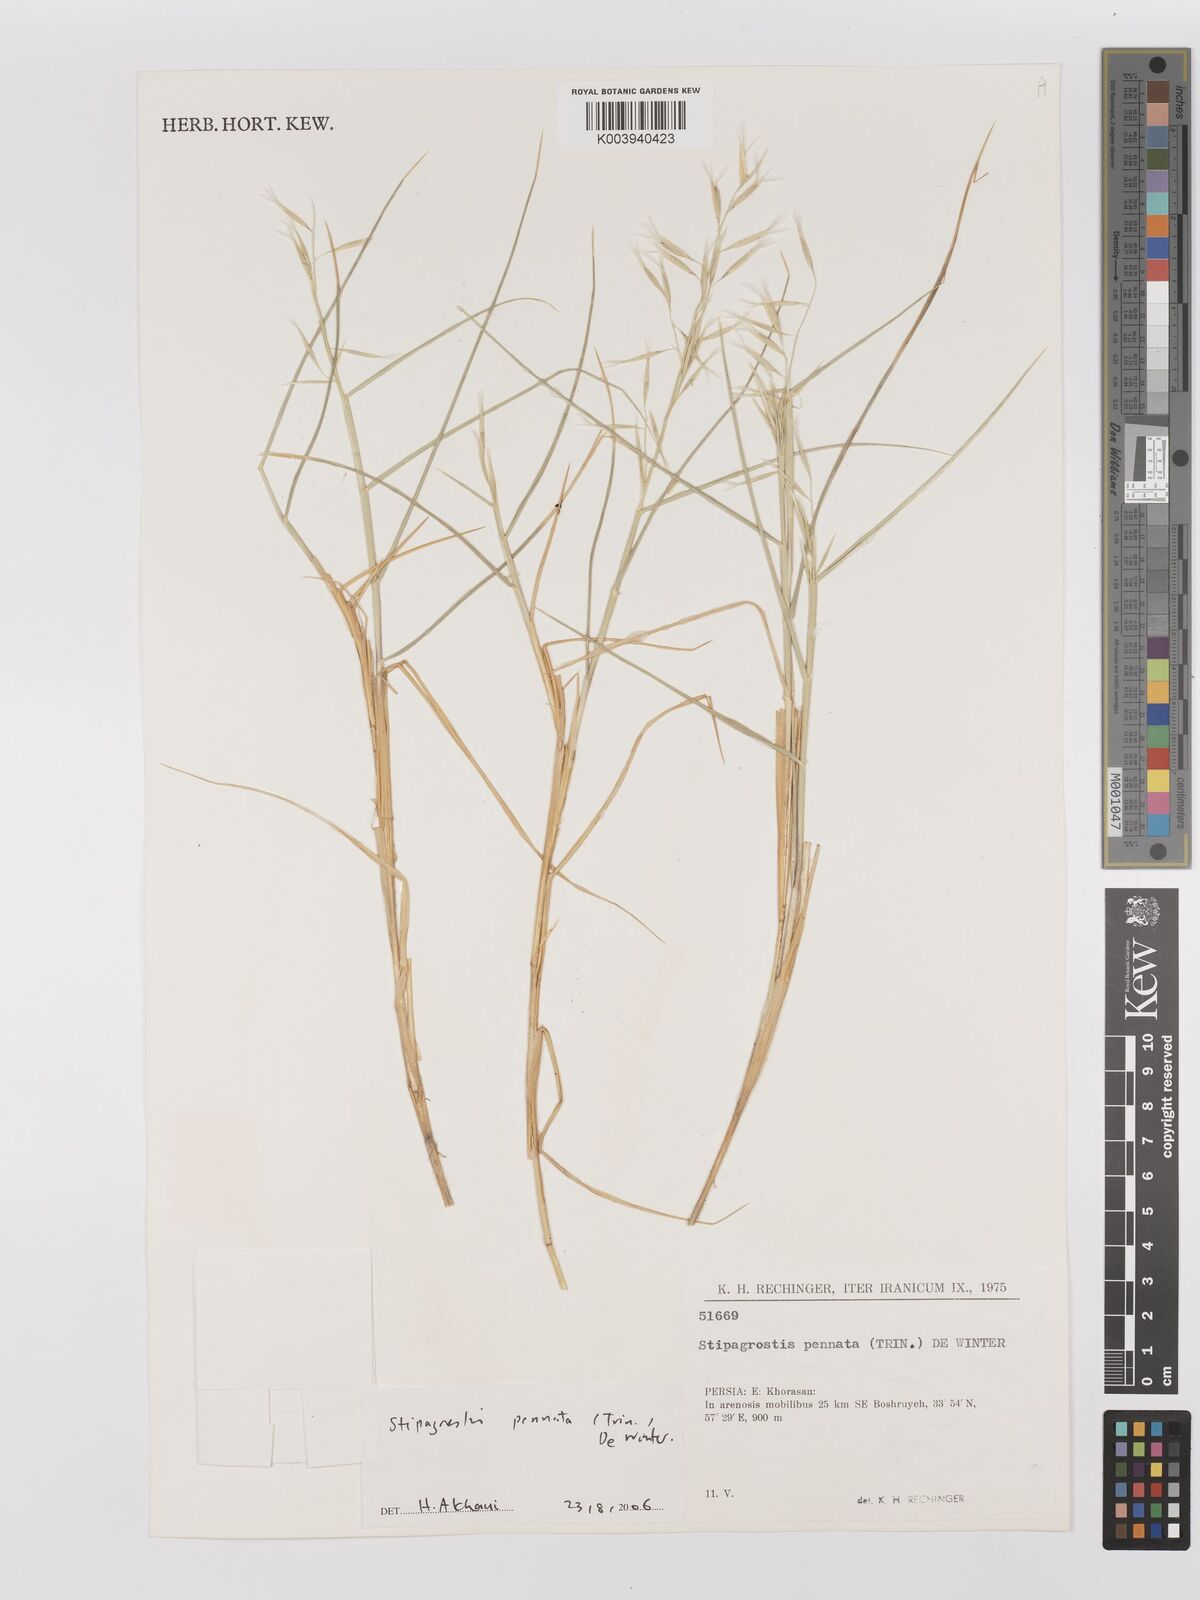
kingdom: Plantae
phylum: Tracheophyta
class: Liliopsida
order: Poales
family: Poaceae
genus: Stipagrostis
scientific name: Stipagrostis pennata
